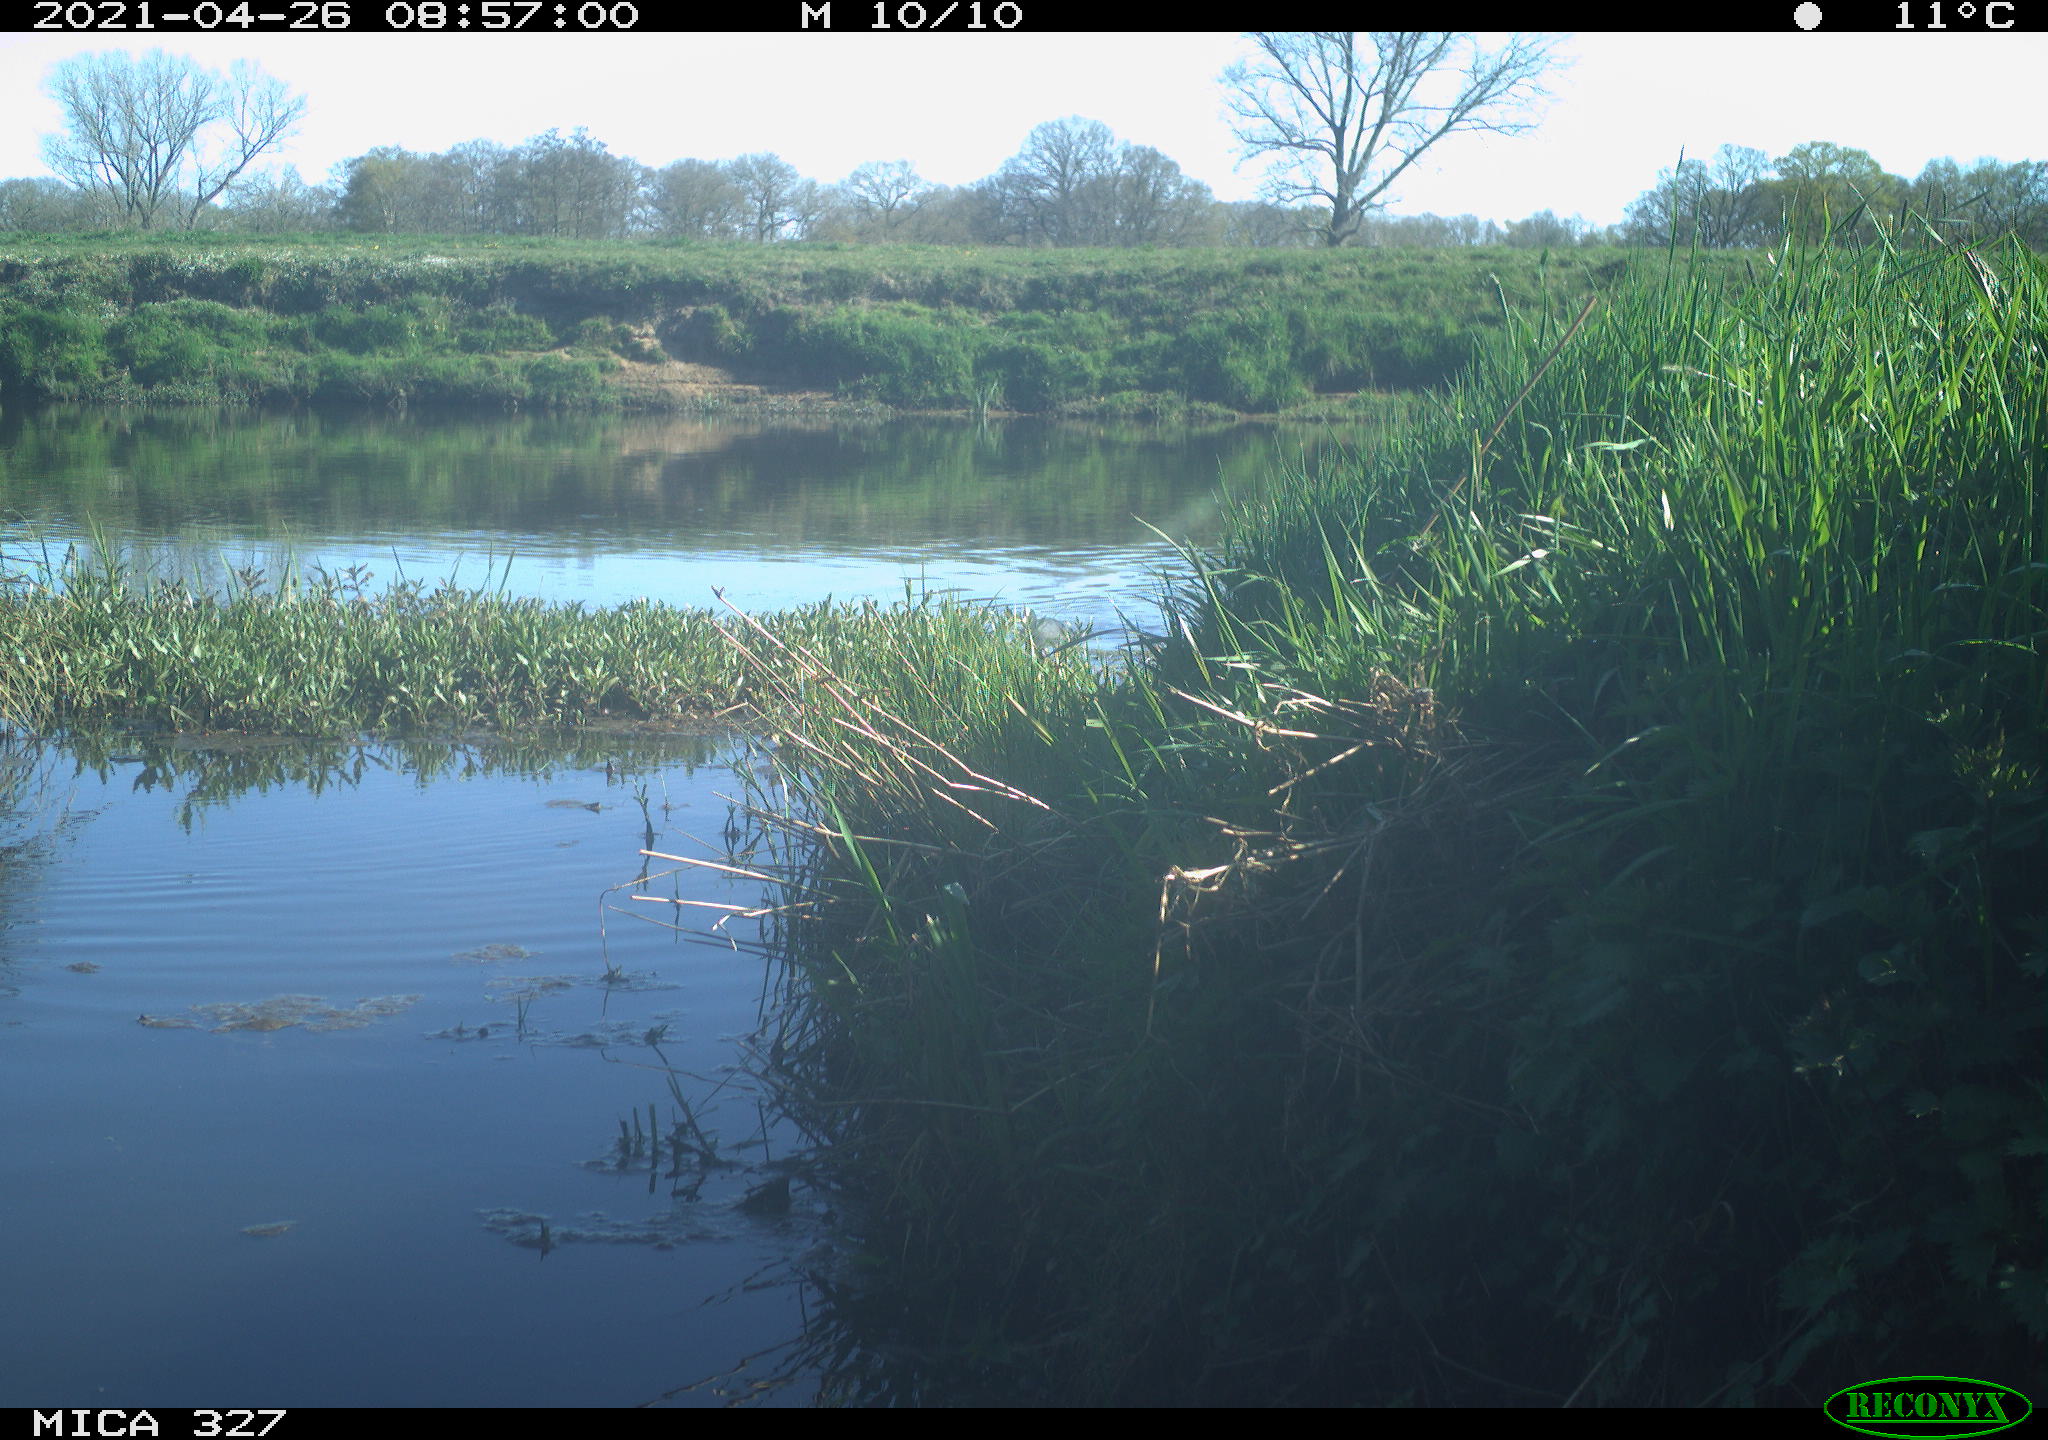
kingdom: Animalia
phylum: Chordata
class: Aves
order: Gruiformes
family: Rallidae
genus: Gallinula
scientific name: Gallinula chloropus
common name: Common moorhen
